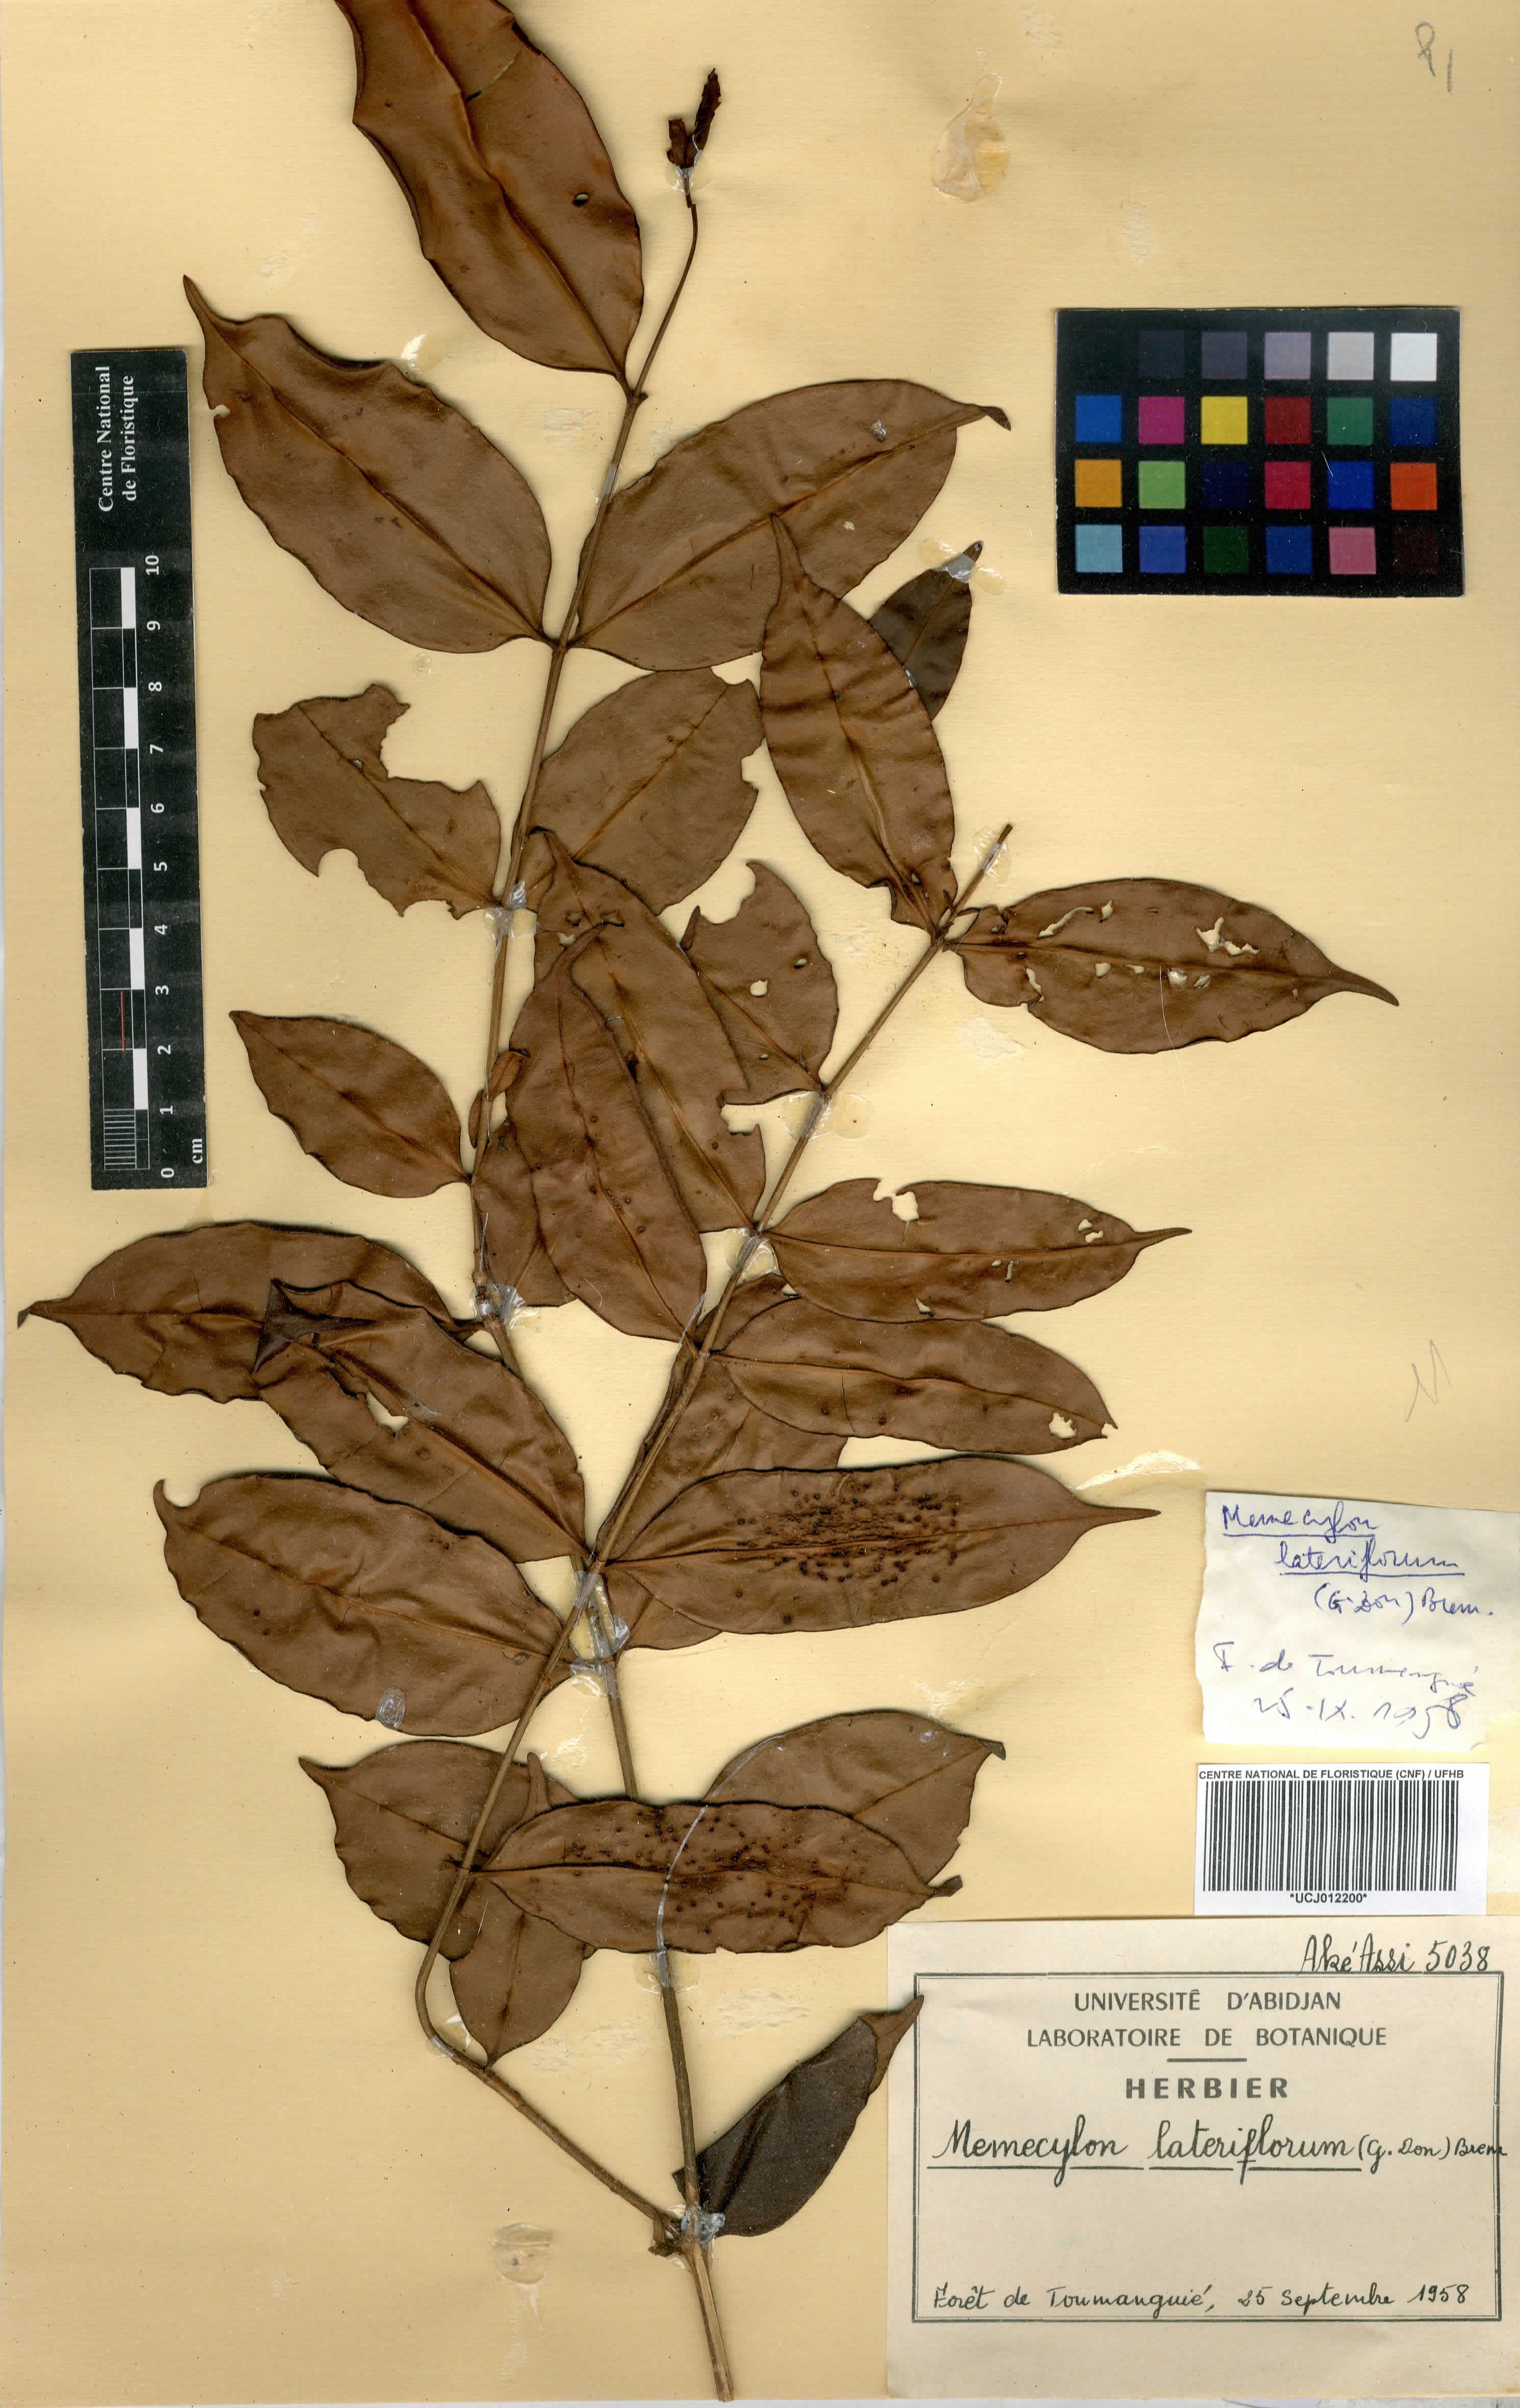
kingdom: Plantae
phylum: Tracheophyta
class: Magnoliopsida
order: Myrtales
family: Melastomataceae
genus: Memecylon
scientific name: Memecylon lateriflorum
